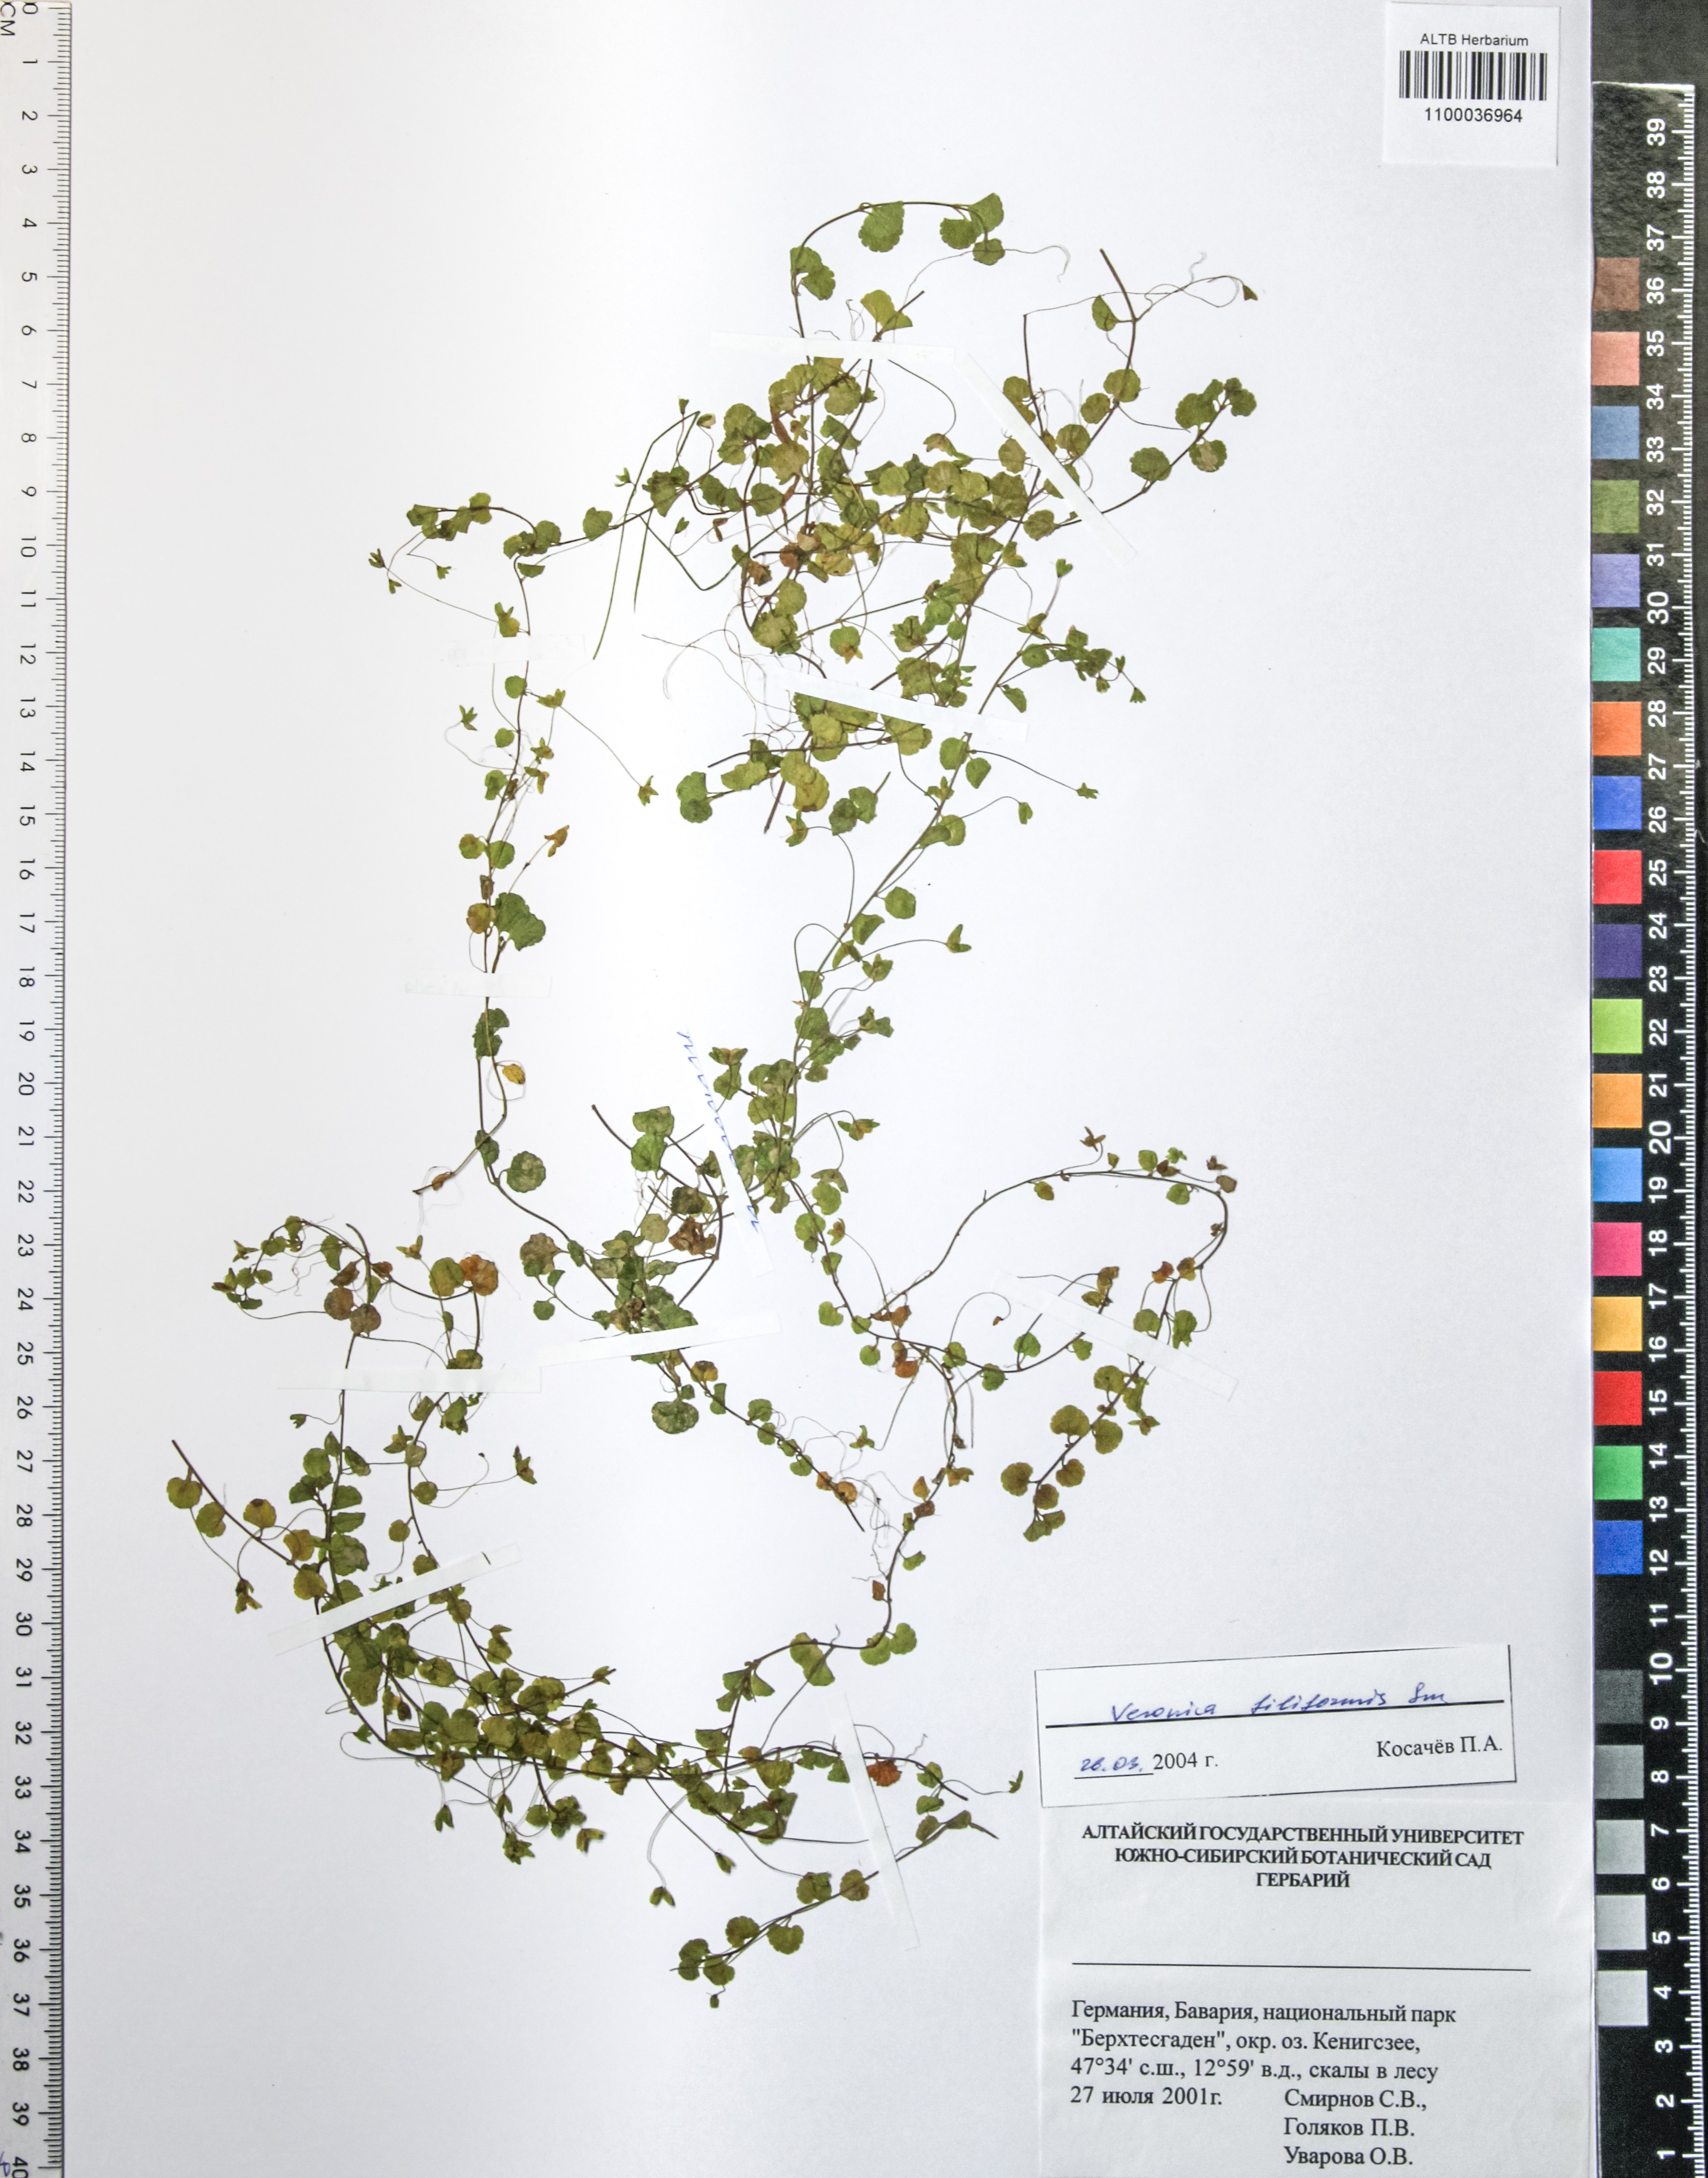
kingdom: Plantae
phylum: Tracheophyta
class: Magnoliopsida
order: Lamiales
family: Plantaginaceae
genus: Veronica
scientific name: Veronica filiformis
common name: Slender speedwell
